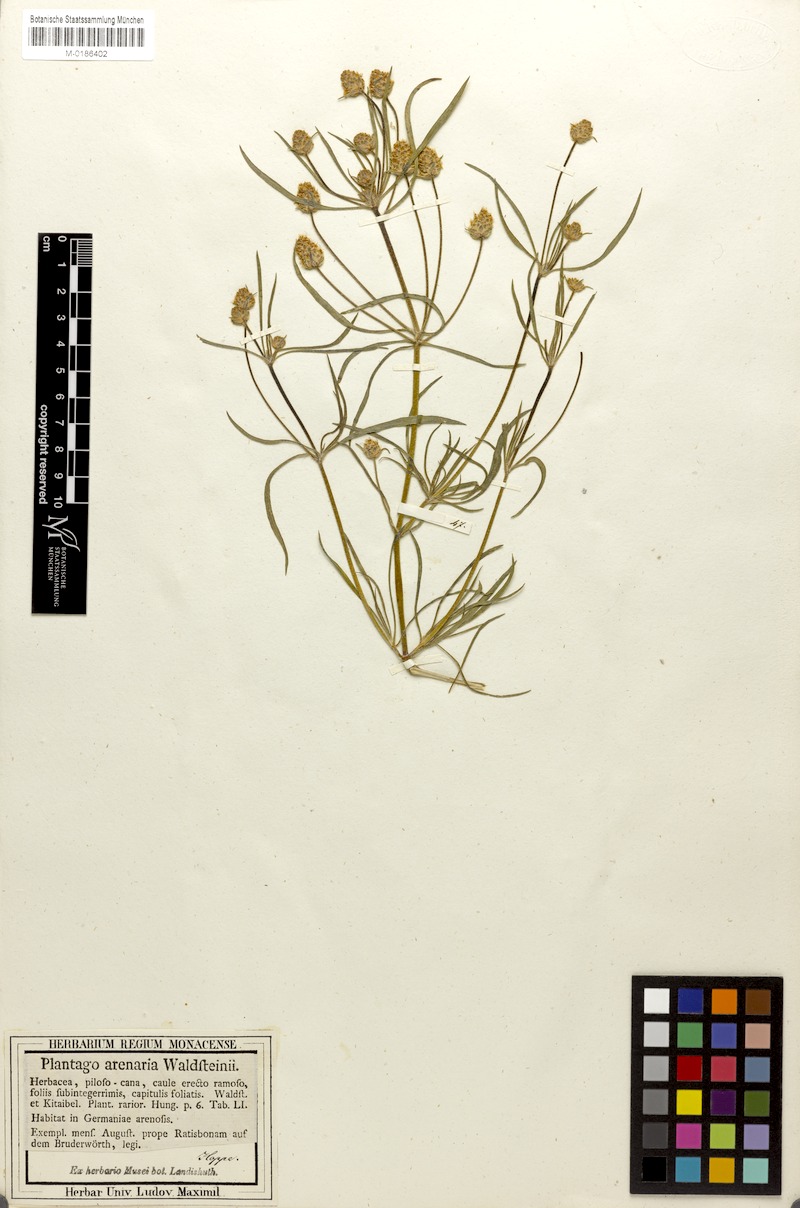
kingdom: Plantae
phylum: Tracheophyta
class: Magnoliopsida
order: Lamiales
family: Plantaginaceae
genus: Plantago
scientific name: Plantago arenaria
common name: Branched plantain
